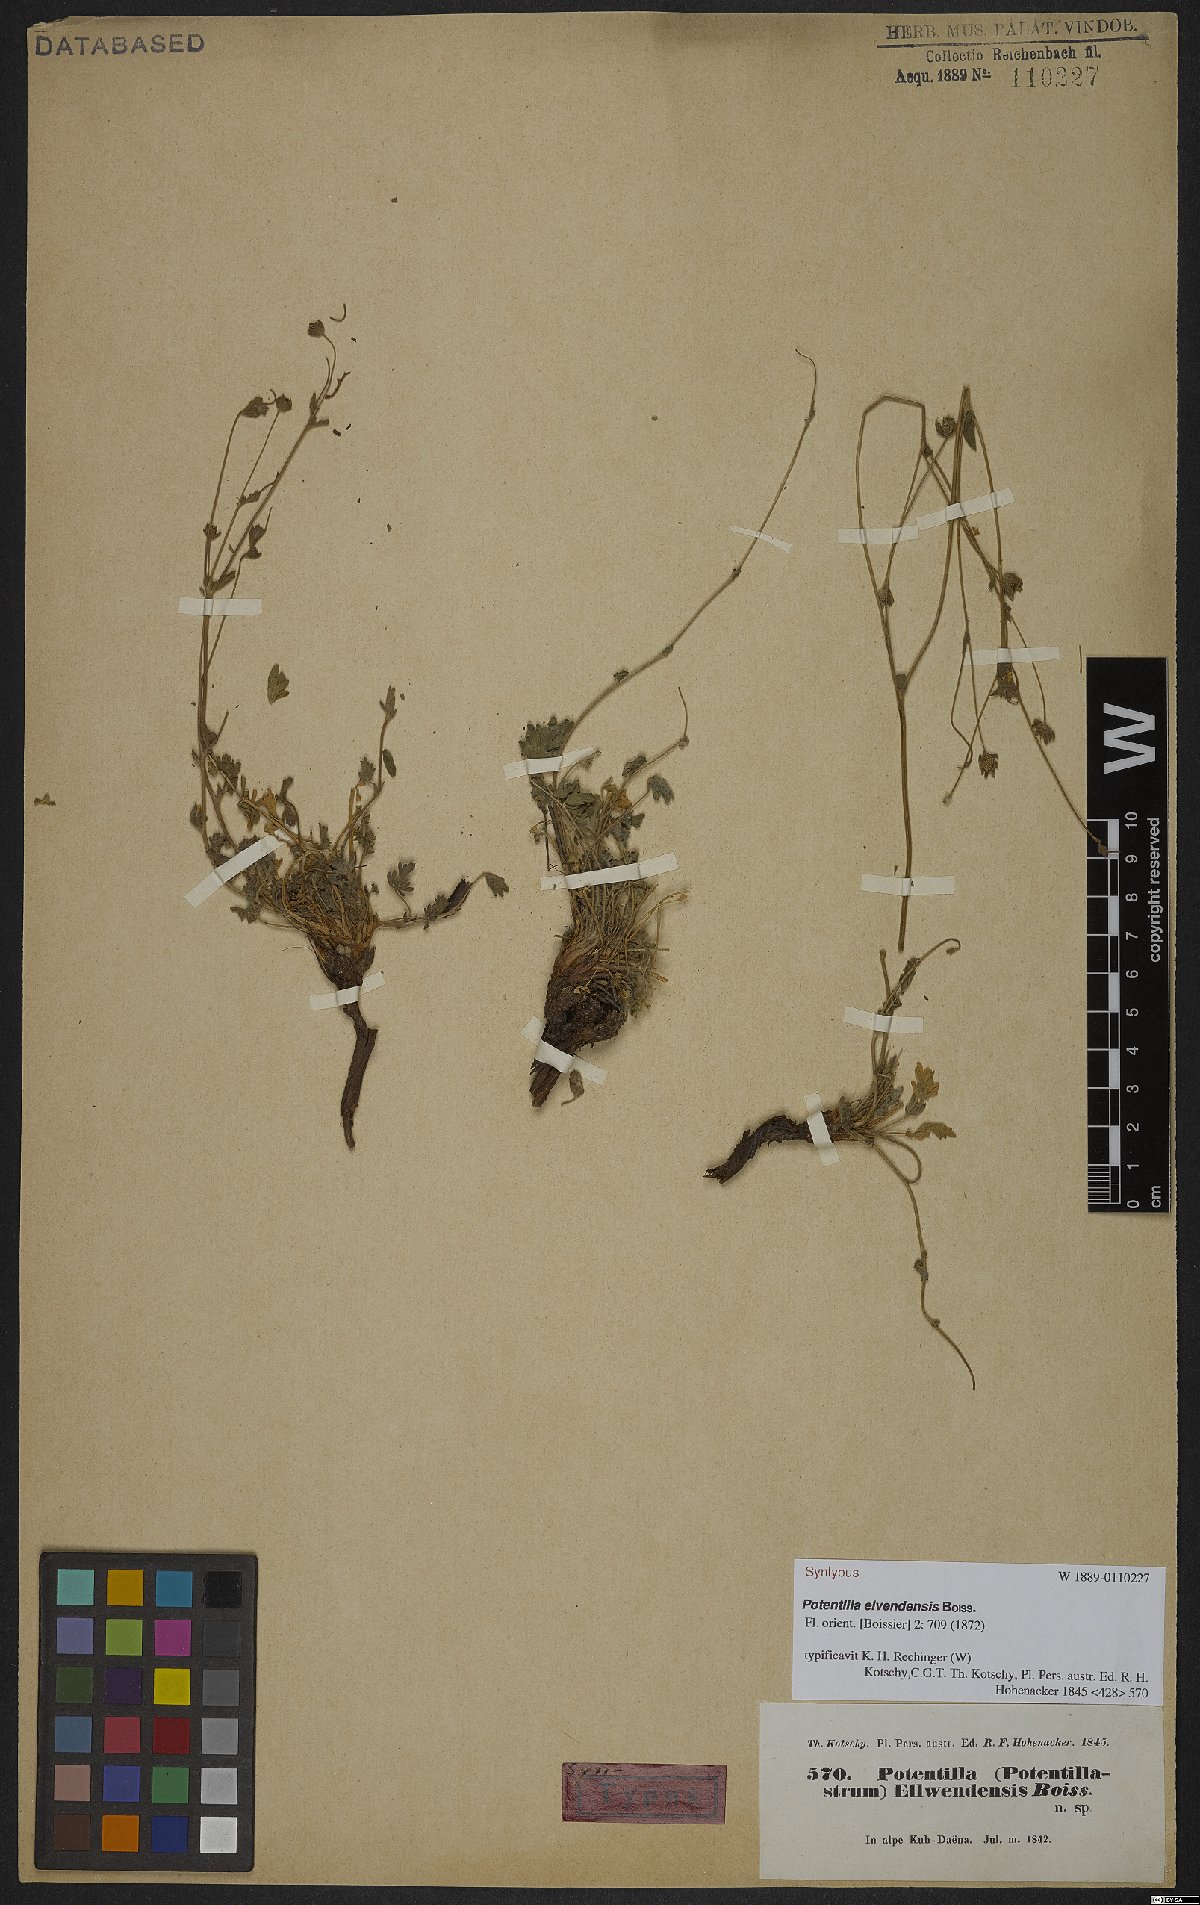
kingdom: Plantae
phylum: Tracheophyta
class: Magnoliopsida
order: Rosales
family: Rosaceae
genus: Potentilla
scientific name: Potentilla elvendensis
